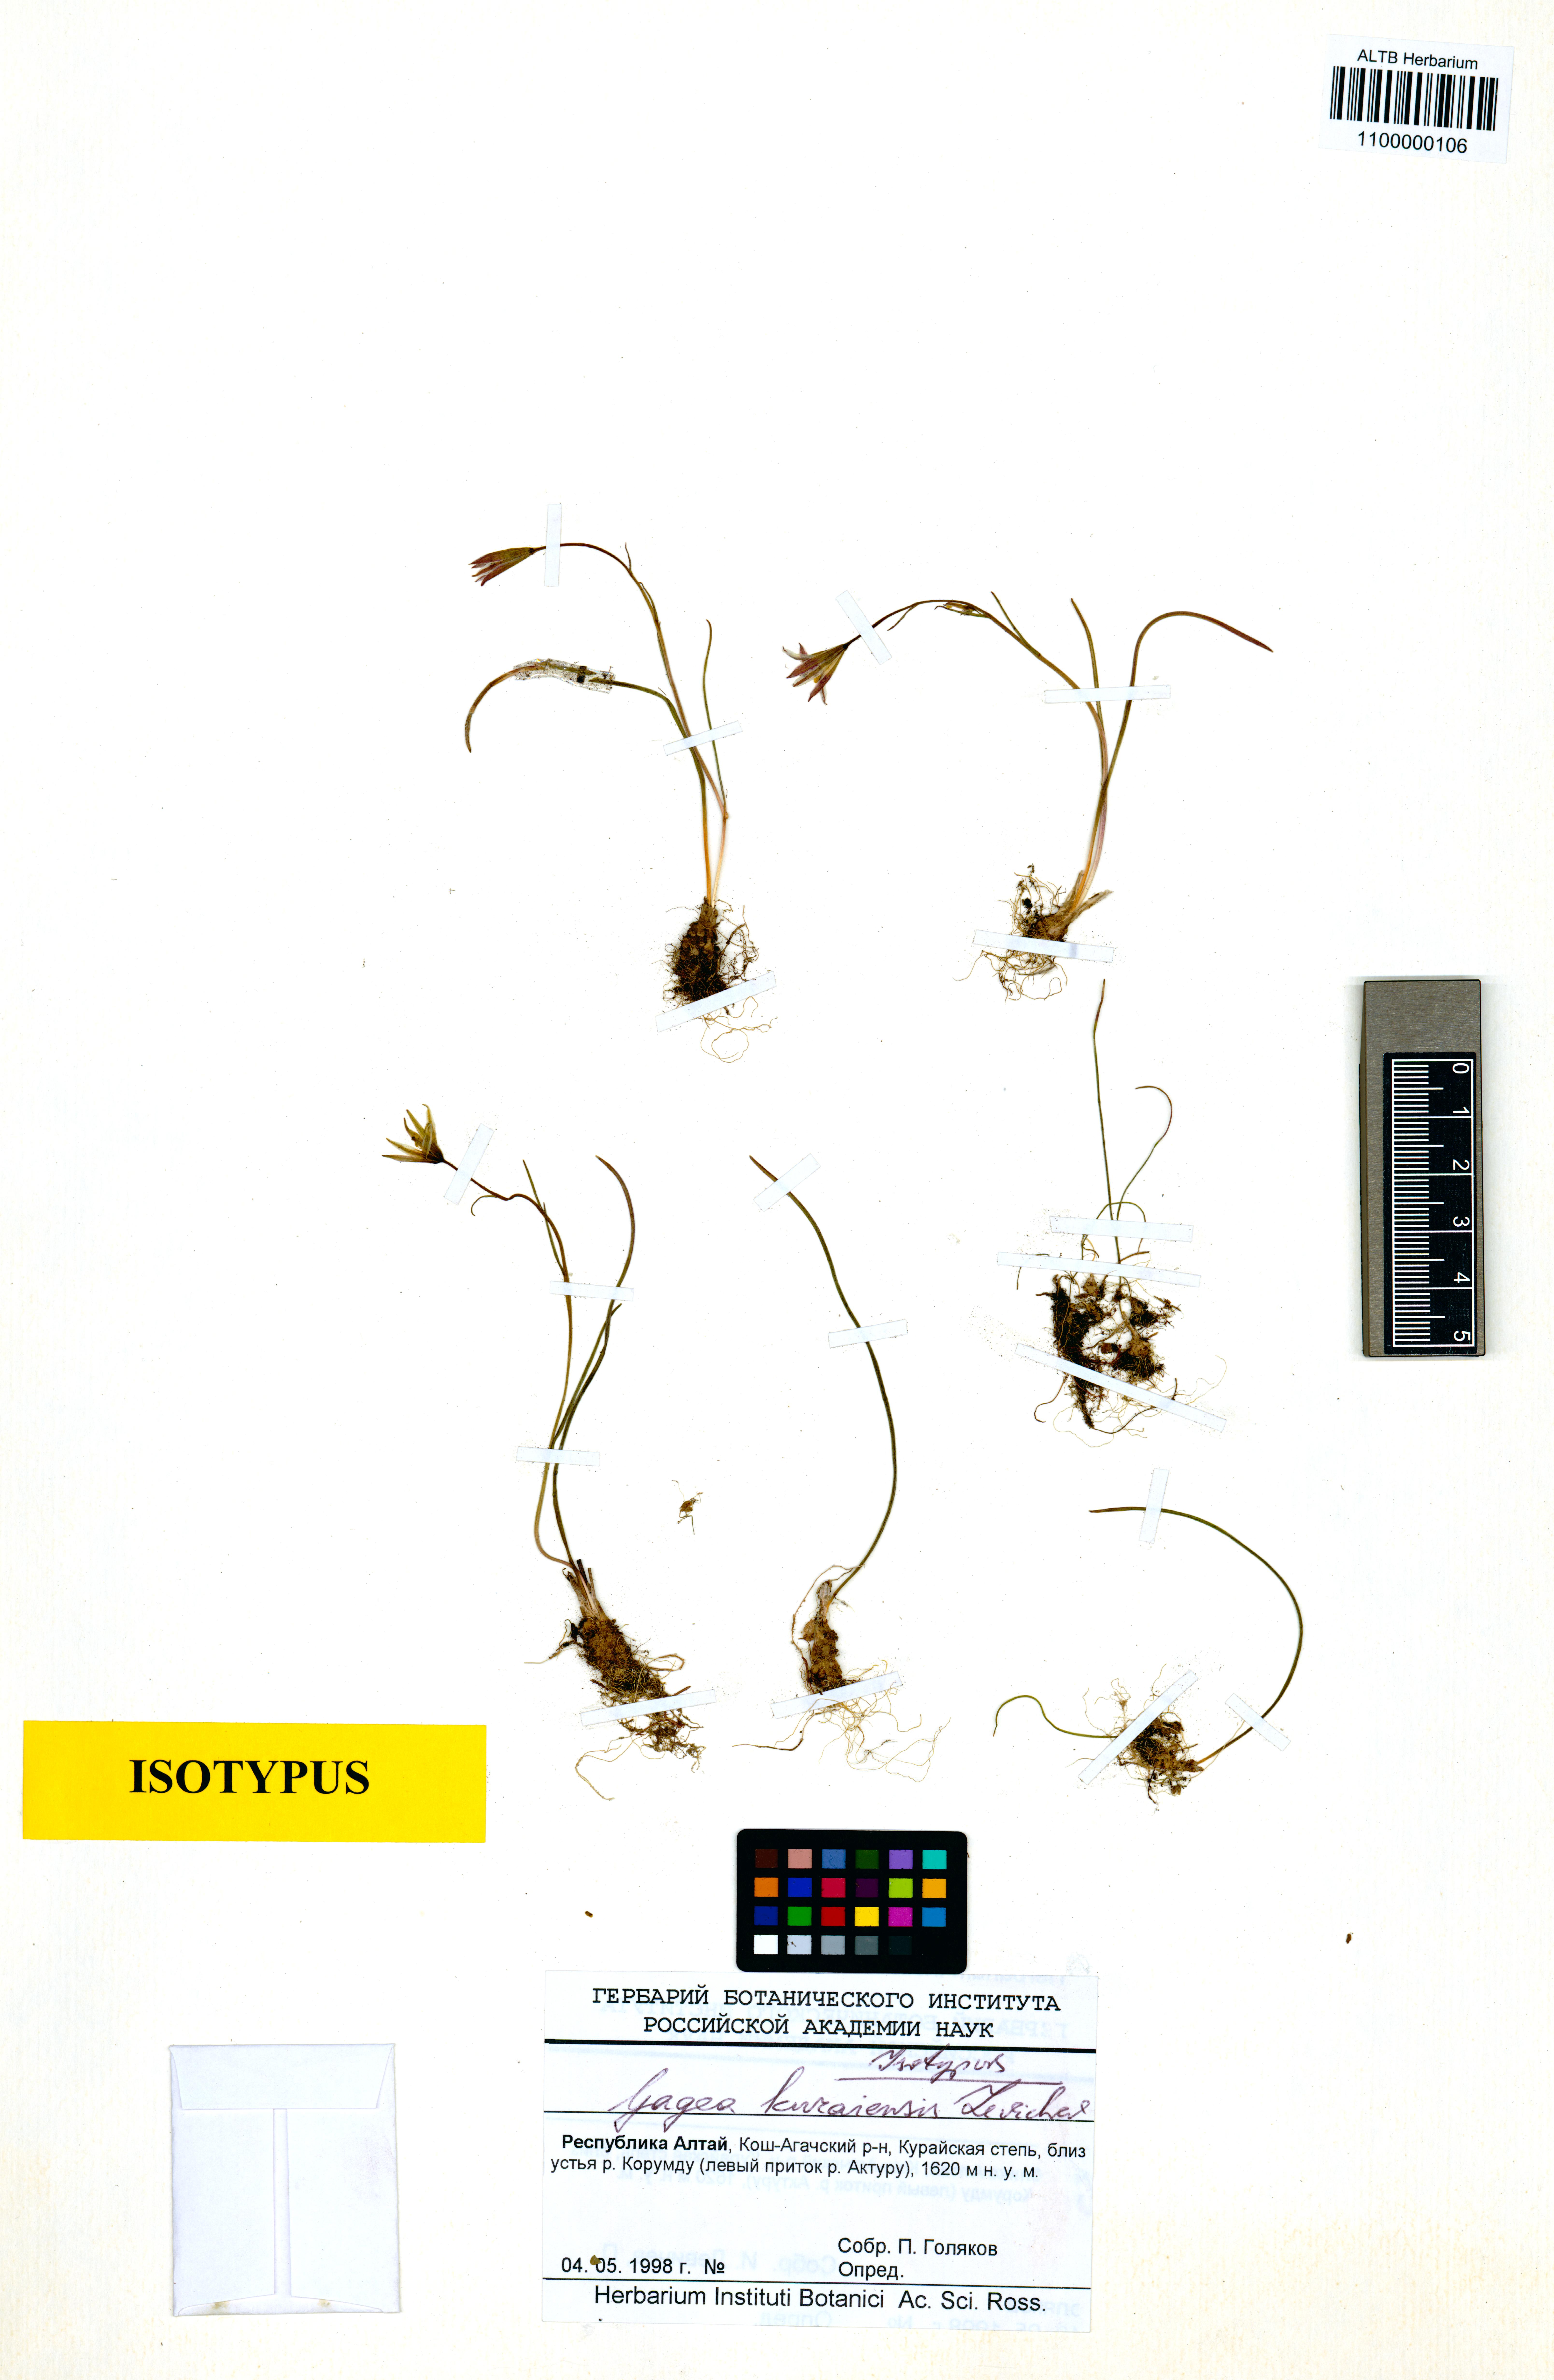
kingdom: Plantae
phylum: Tracheophyta
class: Liliopsida
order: Liliales
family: Liliaceae
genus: Gagea
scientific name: Gagea kuraiensis
